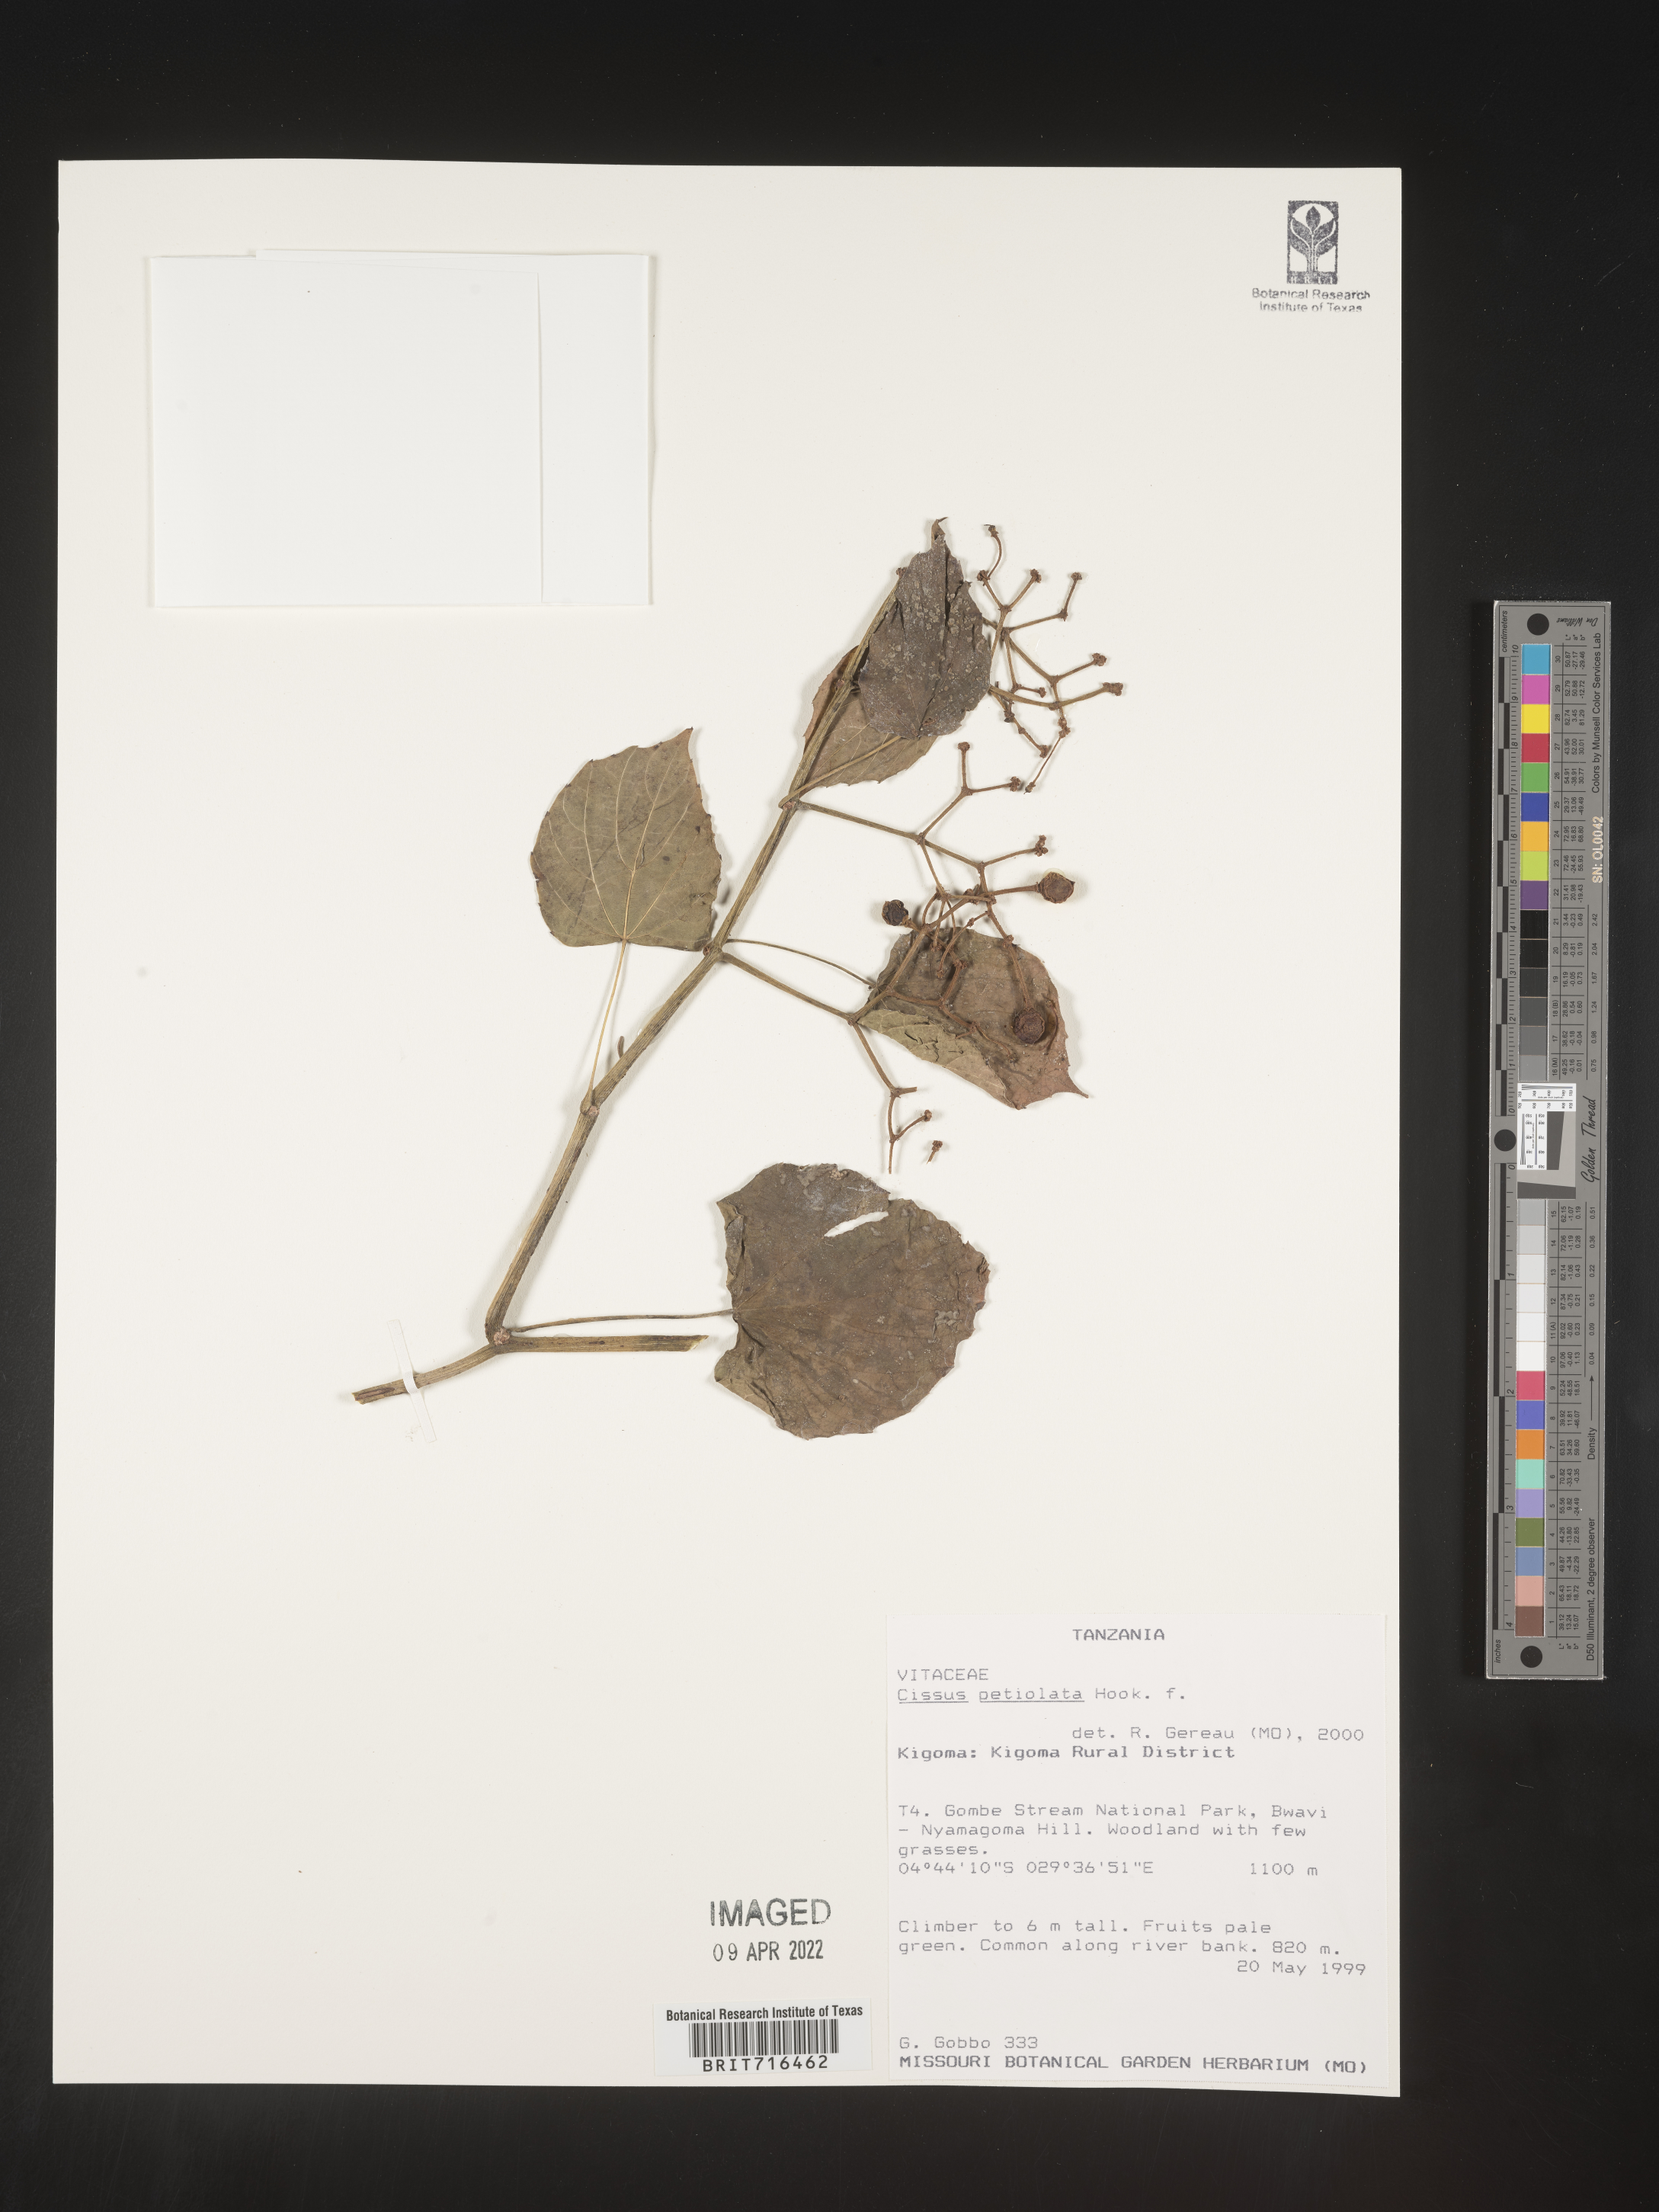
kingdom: Plantae
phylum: Tracheophyta
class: Magnoliopsida
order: Vitales
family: Vitaceae
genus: Cissus
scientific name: Cissus
